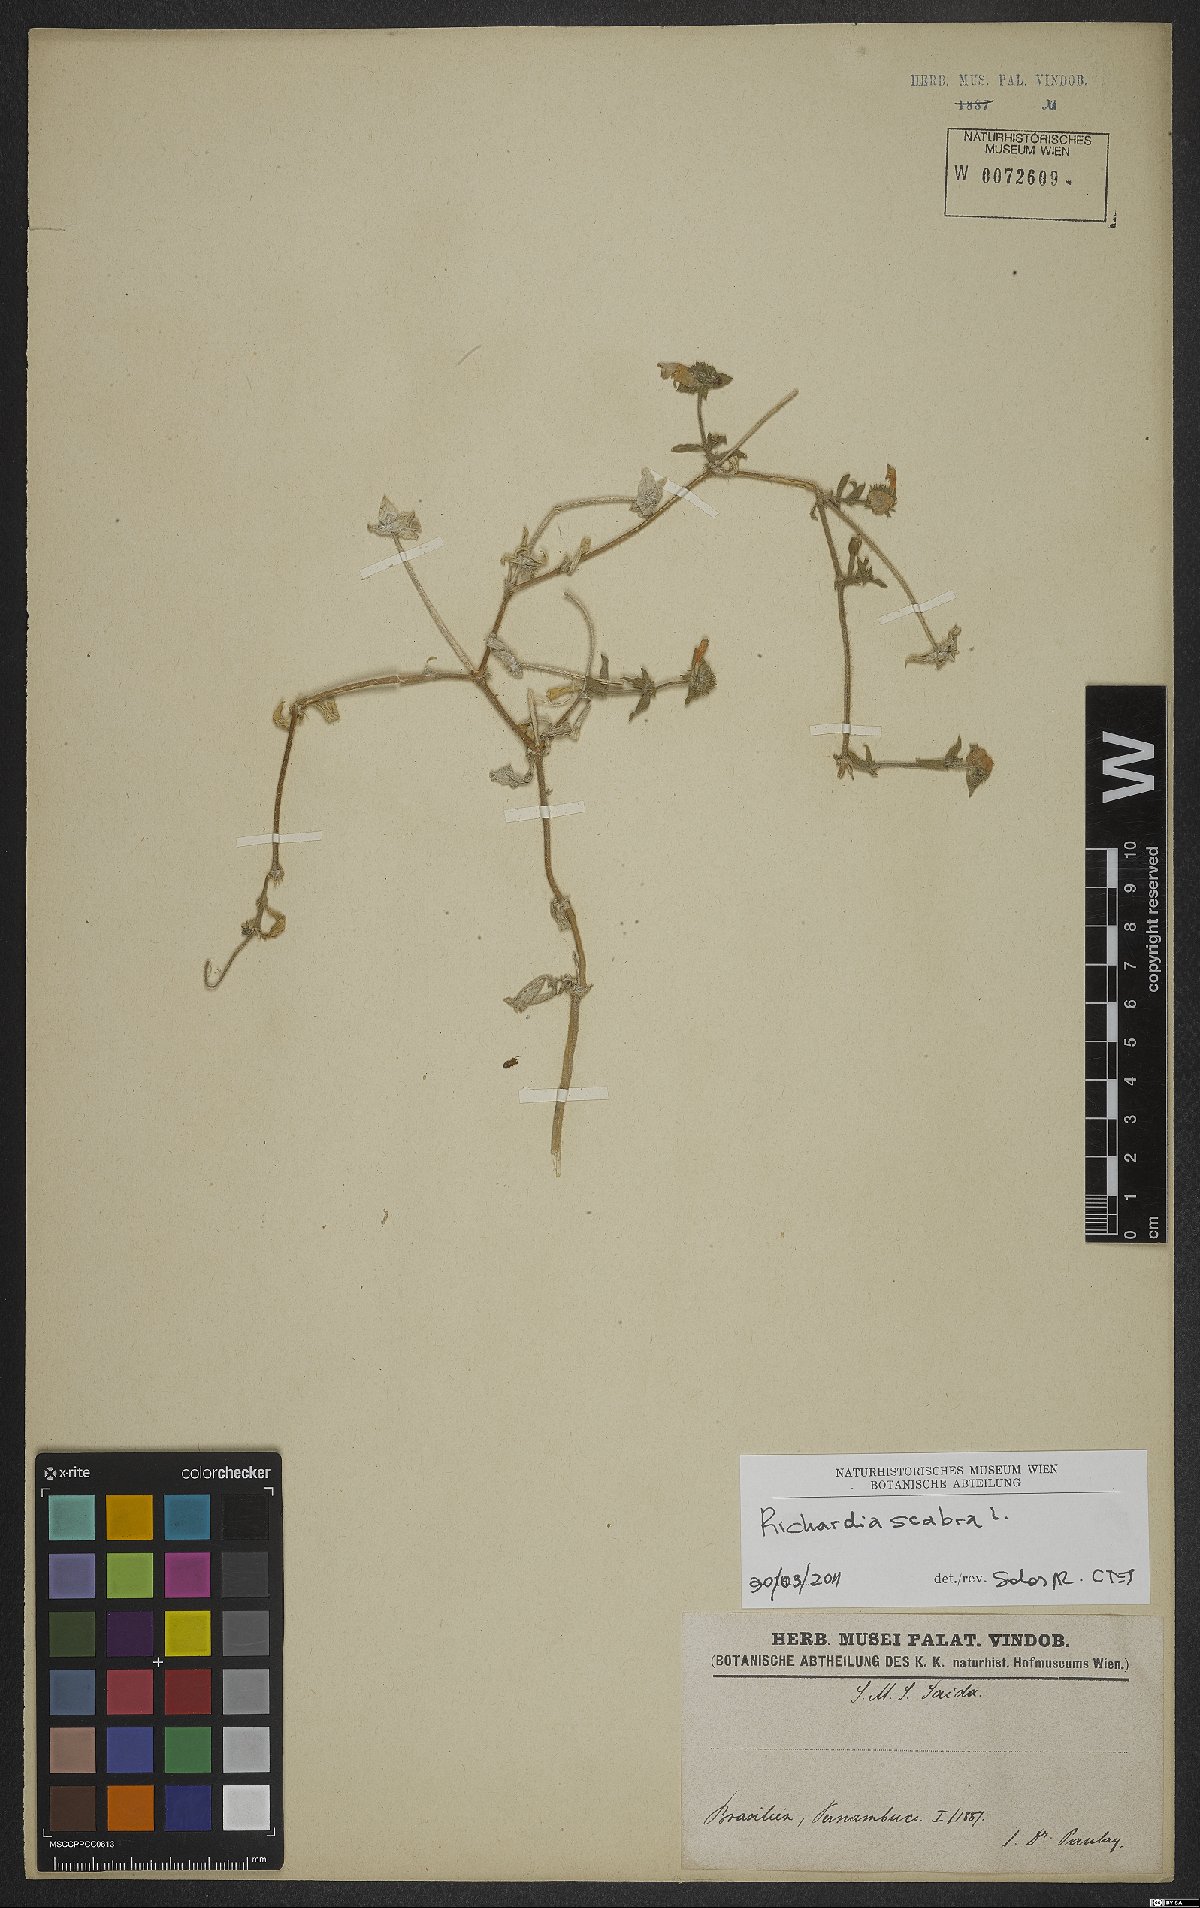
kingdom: Plantae
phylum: Tracheophyta
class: Magnoliopsida
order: Gentianales
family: Rubiaceae
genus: Richardia
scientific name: Richardia scabra
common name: Rough mexican clover
